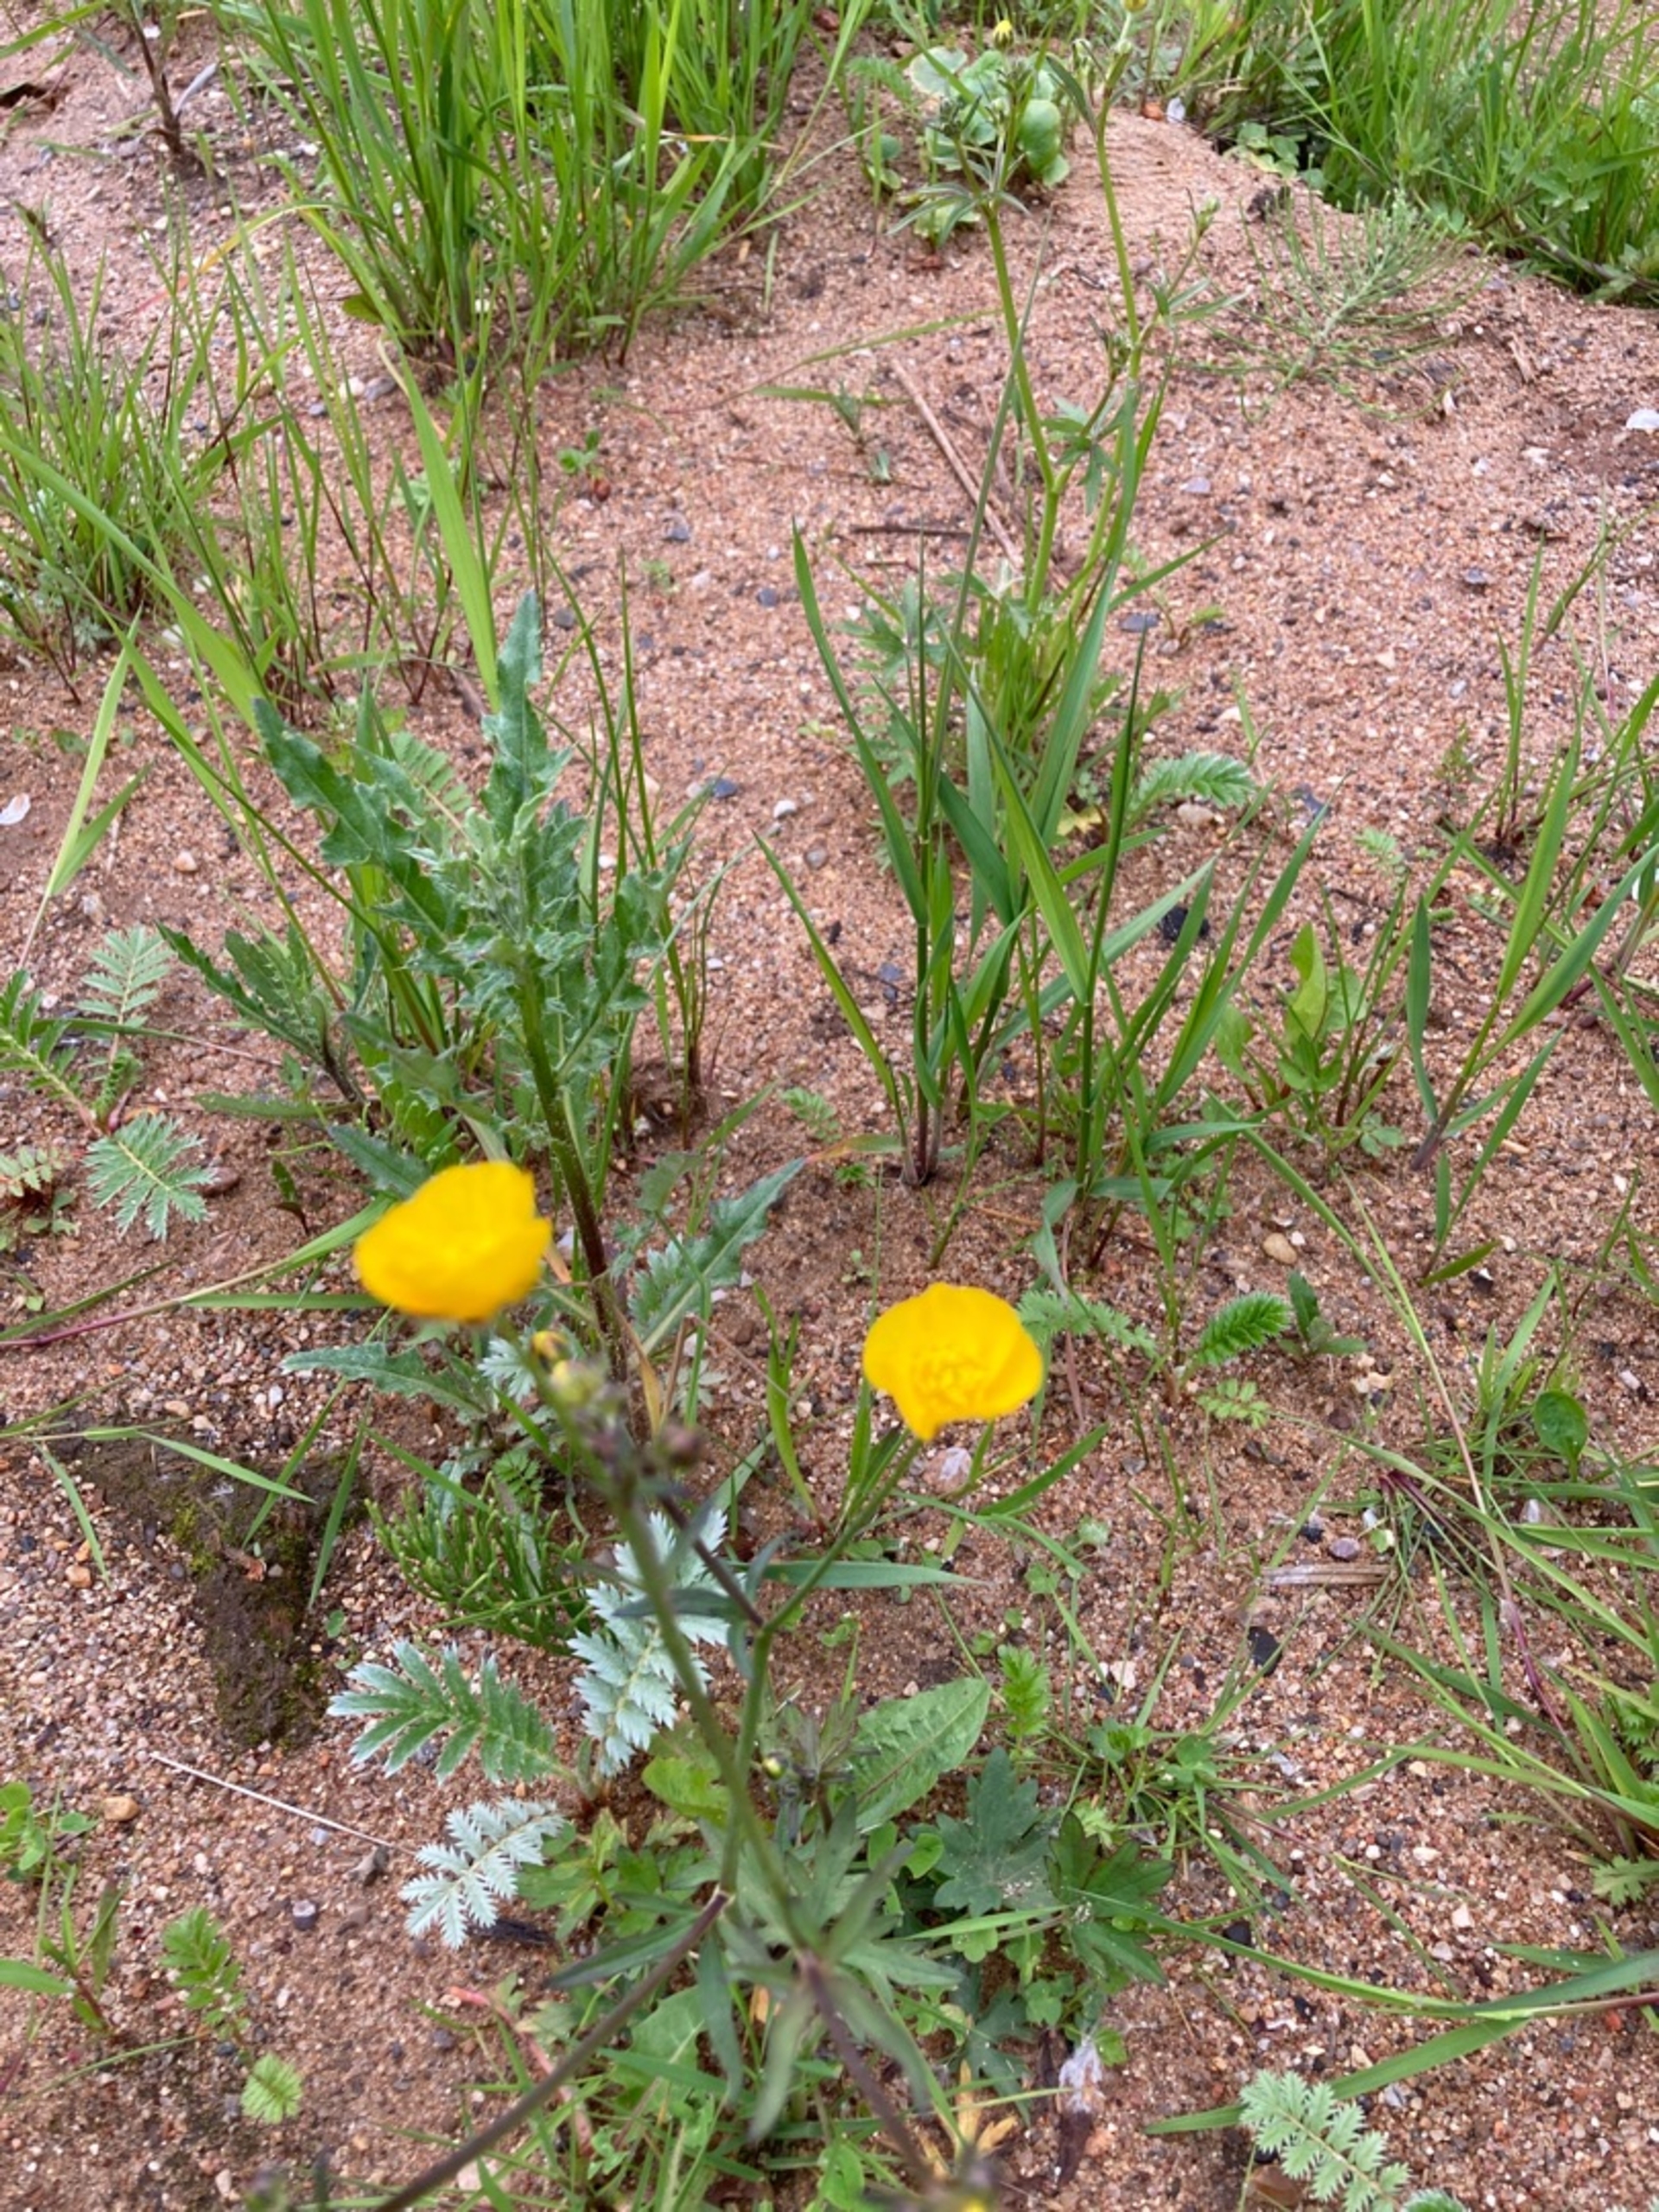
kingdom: Plantae
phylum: Tracheophyta
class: Magnoliopsida
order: Ranunculales
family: Ranunculaceae
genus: Ranunculus
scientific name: Ranunculus acris
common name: Bidende ranunkel
